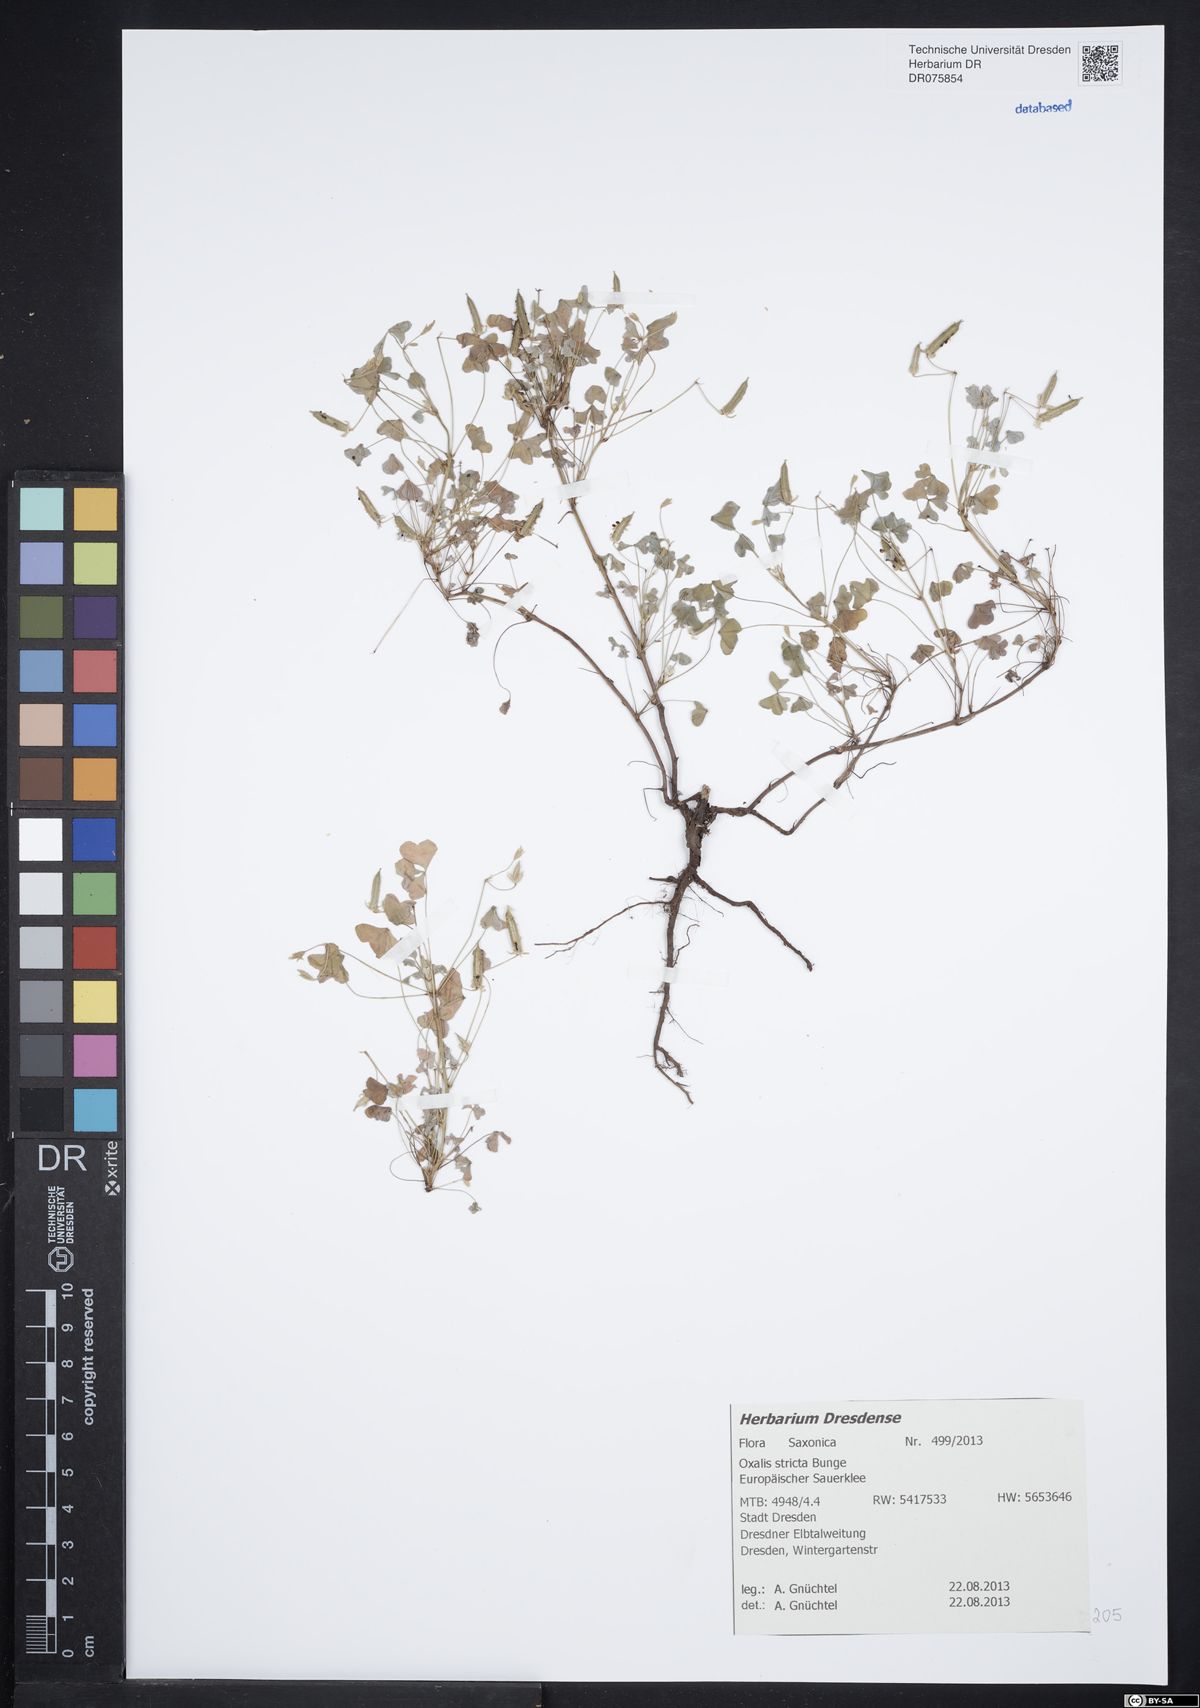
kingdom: Plantae
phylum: Tracheophyta
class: Magnoliopsida
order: Oxalidales
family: Oxalidaceae
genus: Oxalis
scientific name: Oxalis stricta
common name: Upright yellow-sorrel
